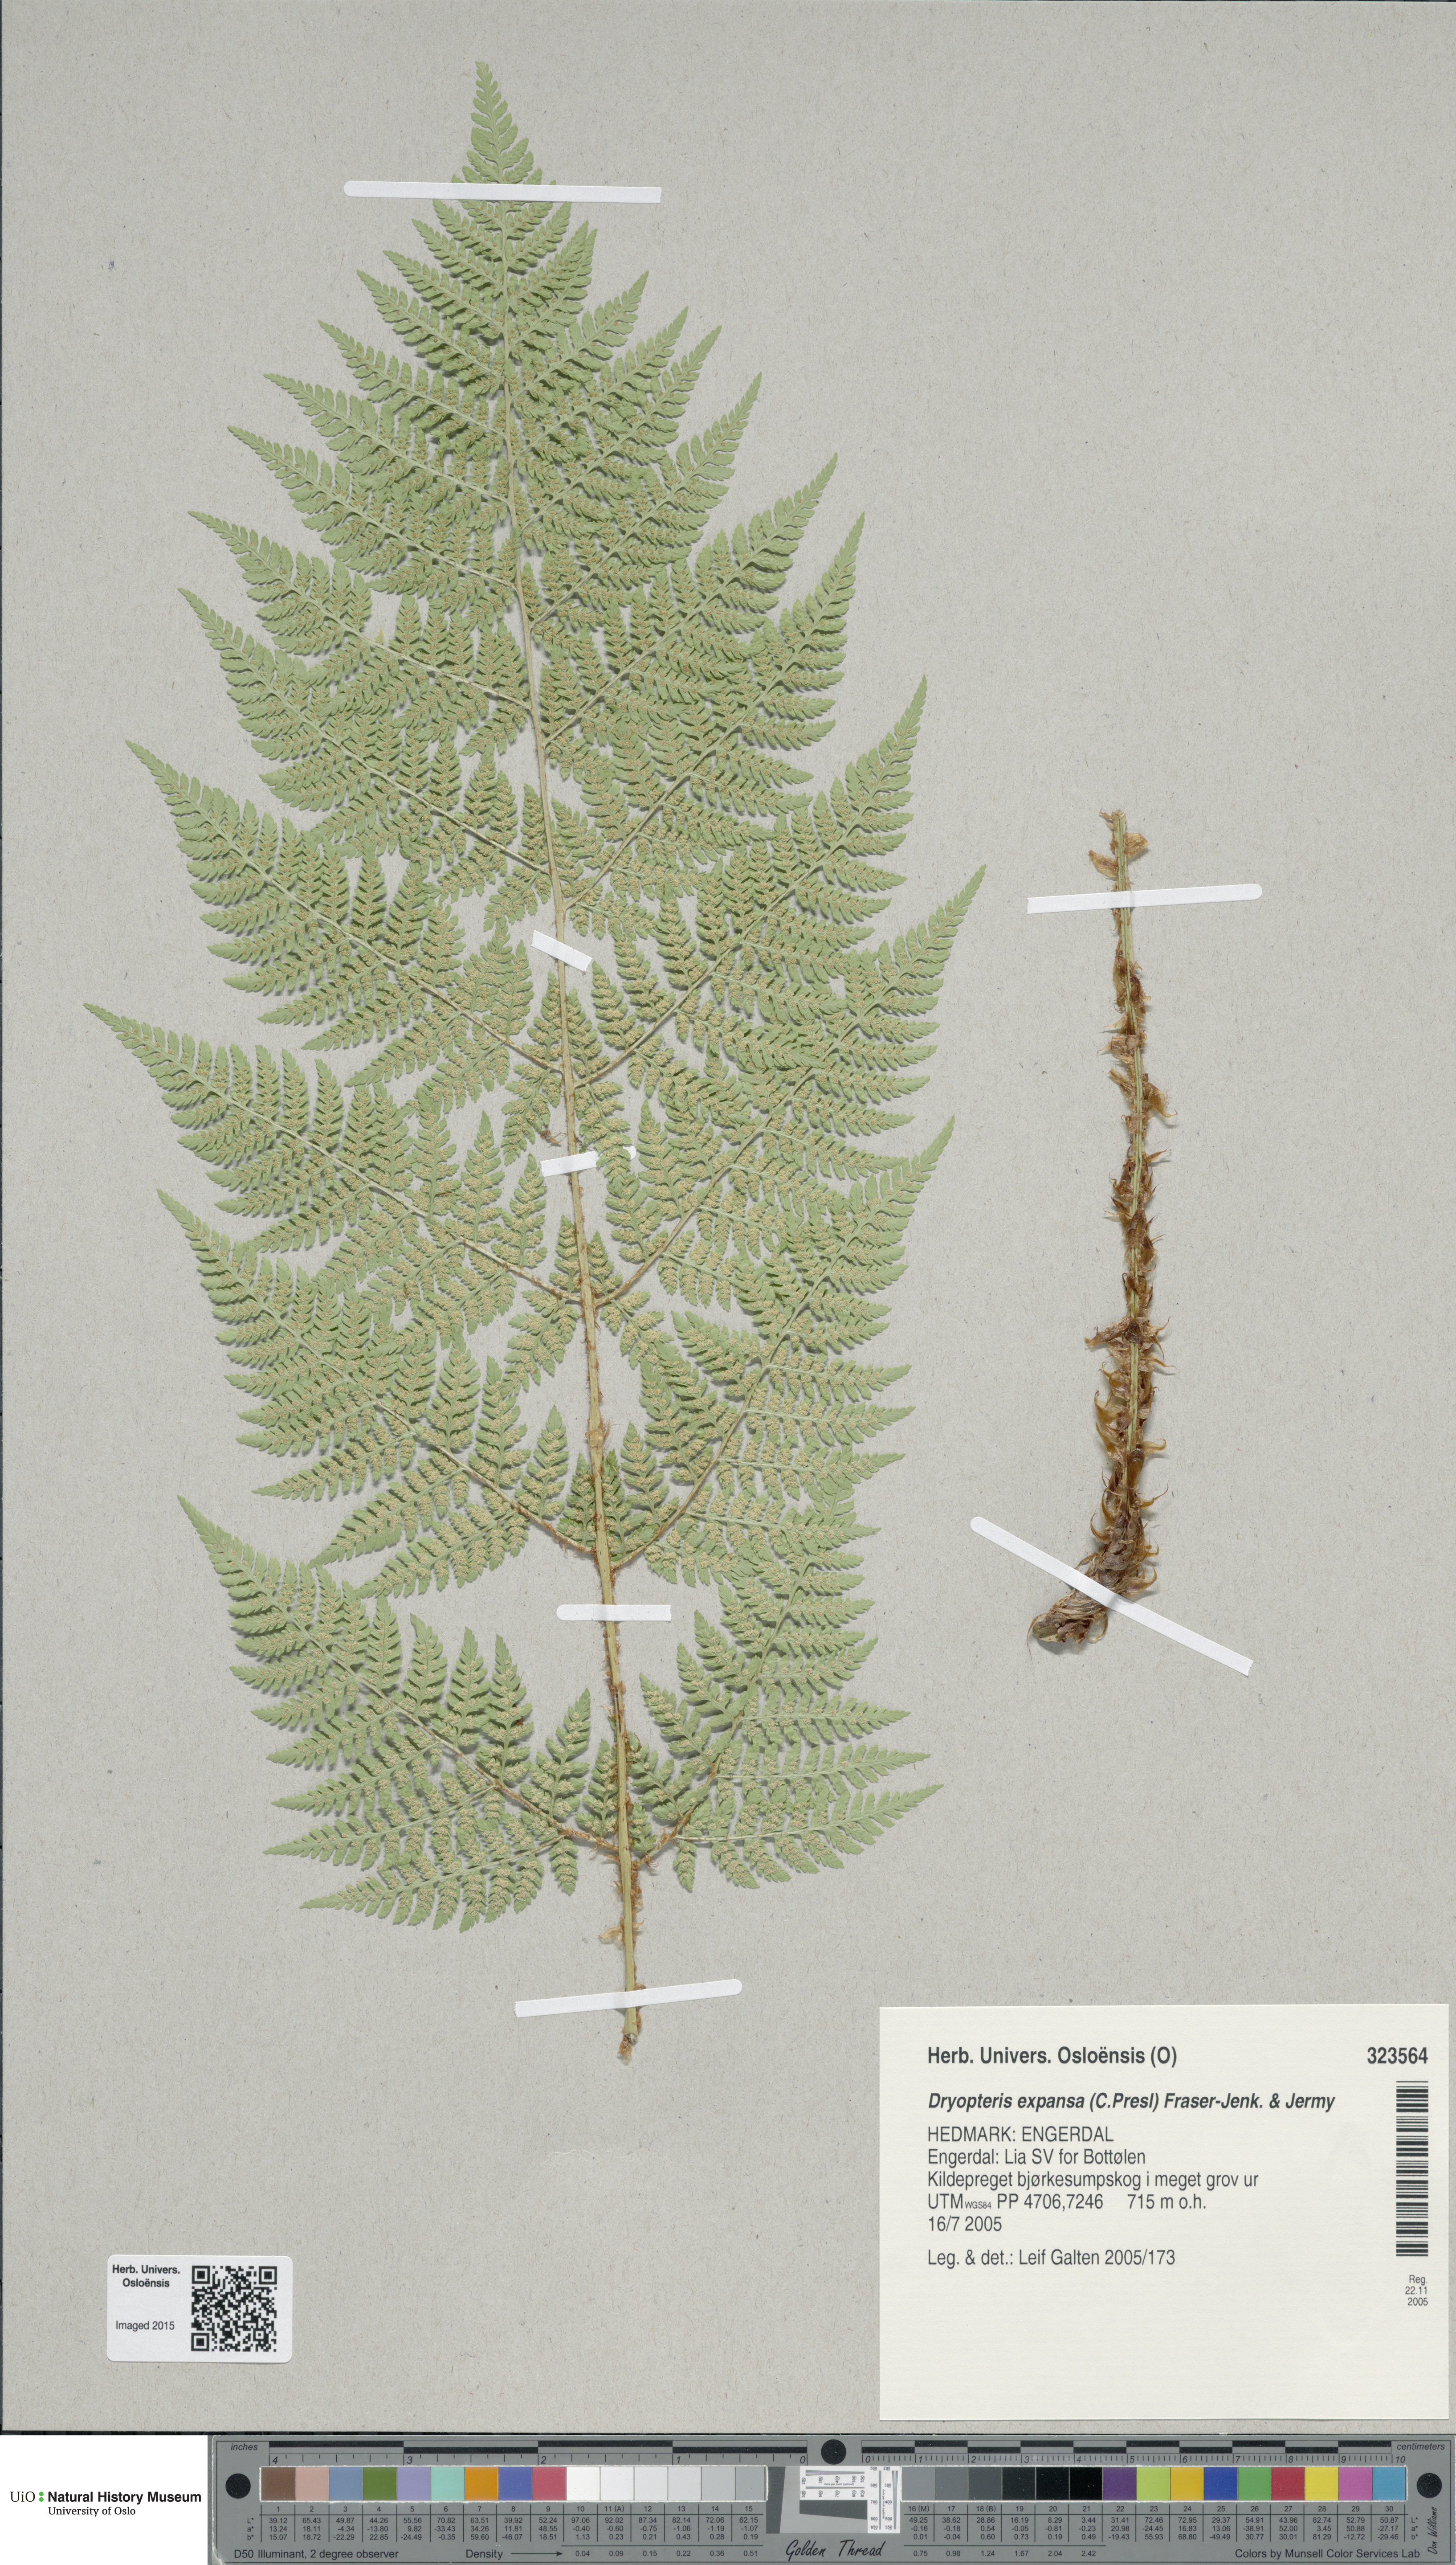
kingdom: Plantae
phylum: Tracheophyta
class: Polypodiopsida
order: Polypodiales
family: Dryopteridaceae
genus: Dryopteris
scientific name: Dryopteris expansa
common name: Northern buckler fern
